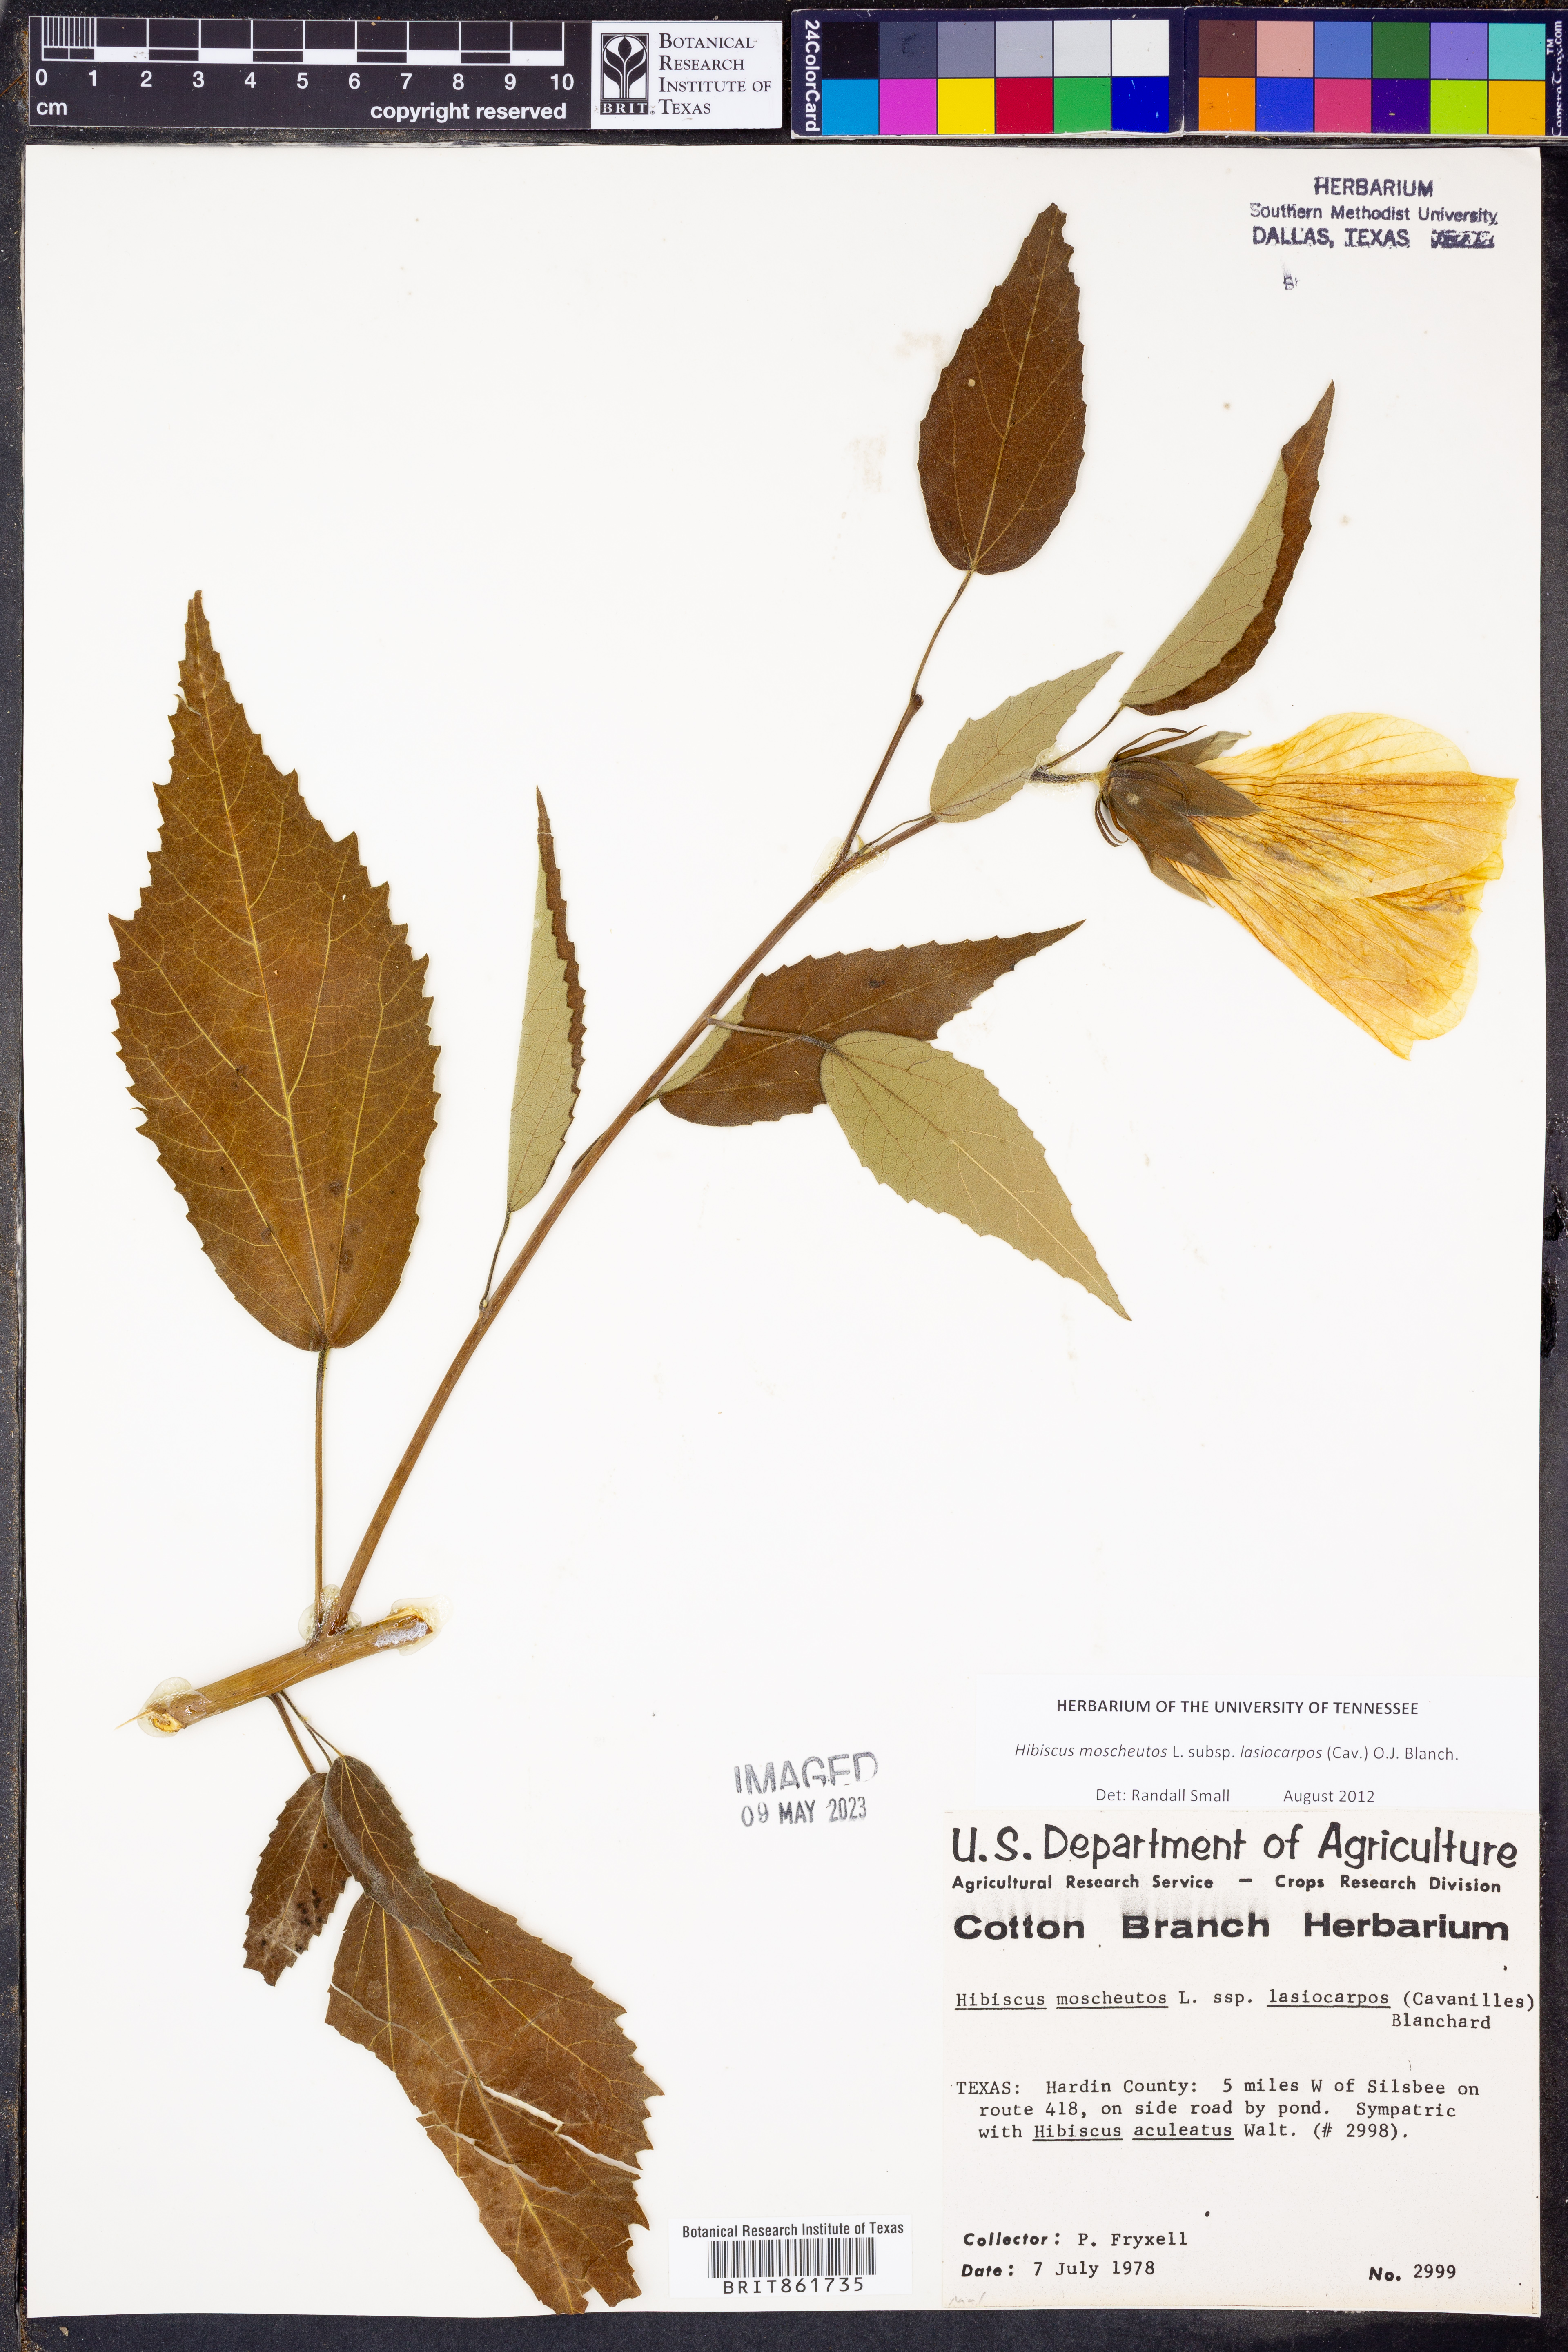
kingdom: Plantae
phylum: Tracheophyta
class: Magnoliopsida
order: Malvales
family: Malvaceae
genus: Hibiscus
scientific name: Hibiscus moscheutos
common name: Common rose-mallow
